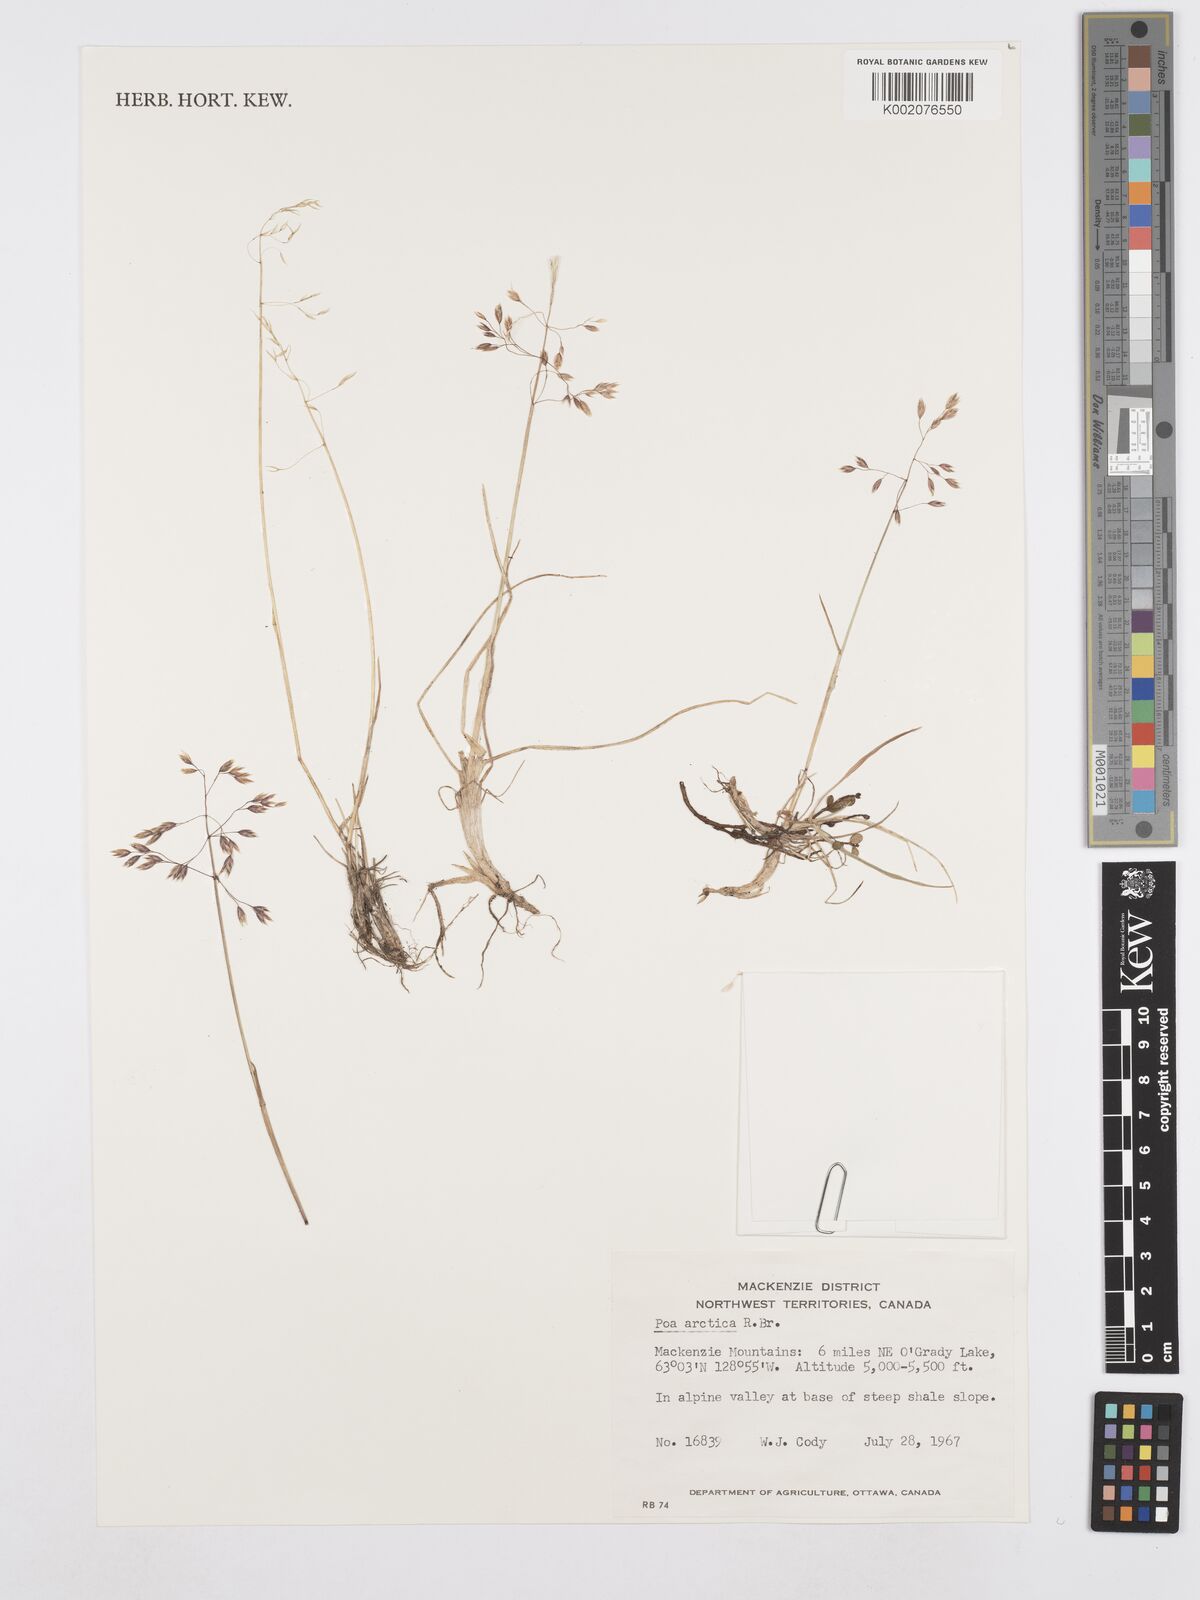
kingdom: Plantae
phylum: Tracheophyta
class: Liliopsida
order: Poales
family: Poaceae
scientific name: Poaceae
